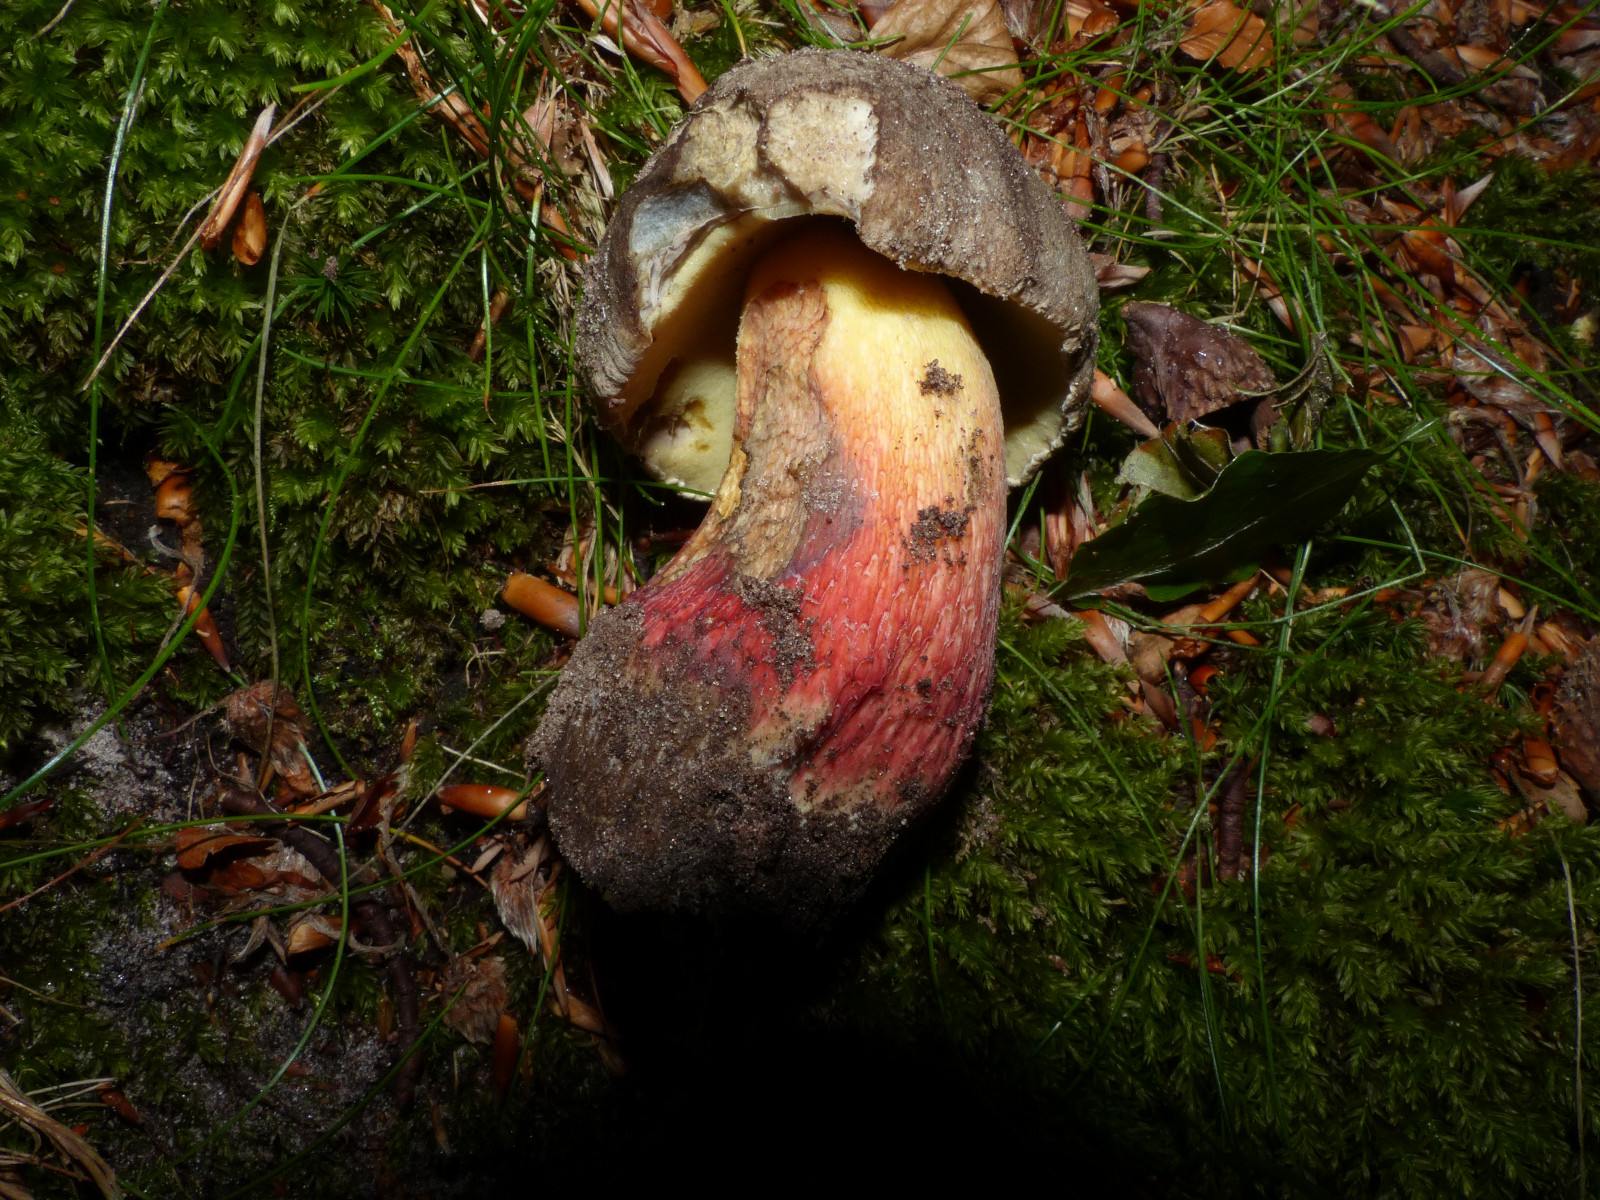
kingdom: Fungi
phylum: Basidiomycota
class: Agaricomycetes
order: Boletales
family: Boletaceae
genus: Caloboletus
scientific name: Caloboletus calopus
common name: skønfodet rørhat
